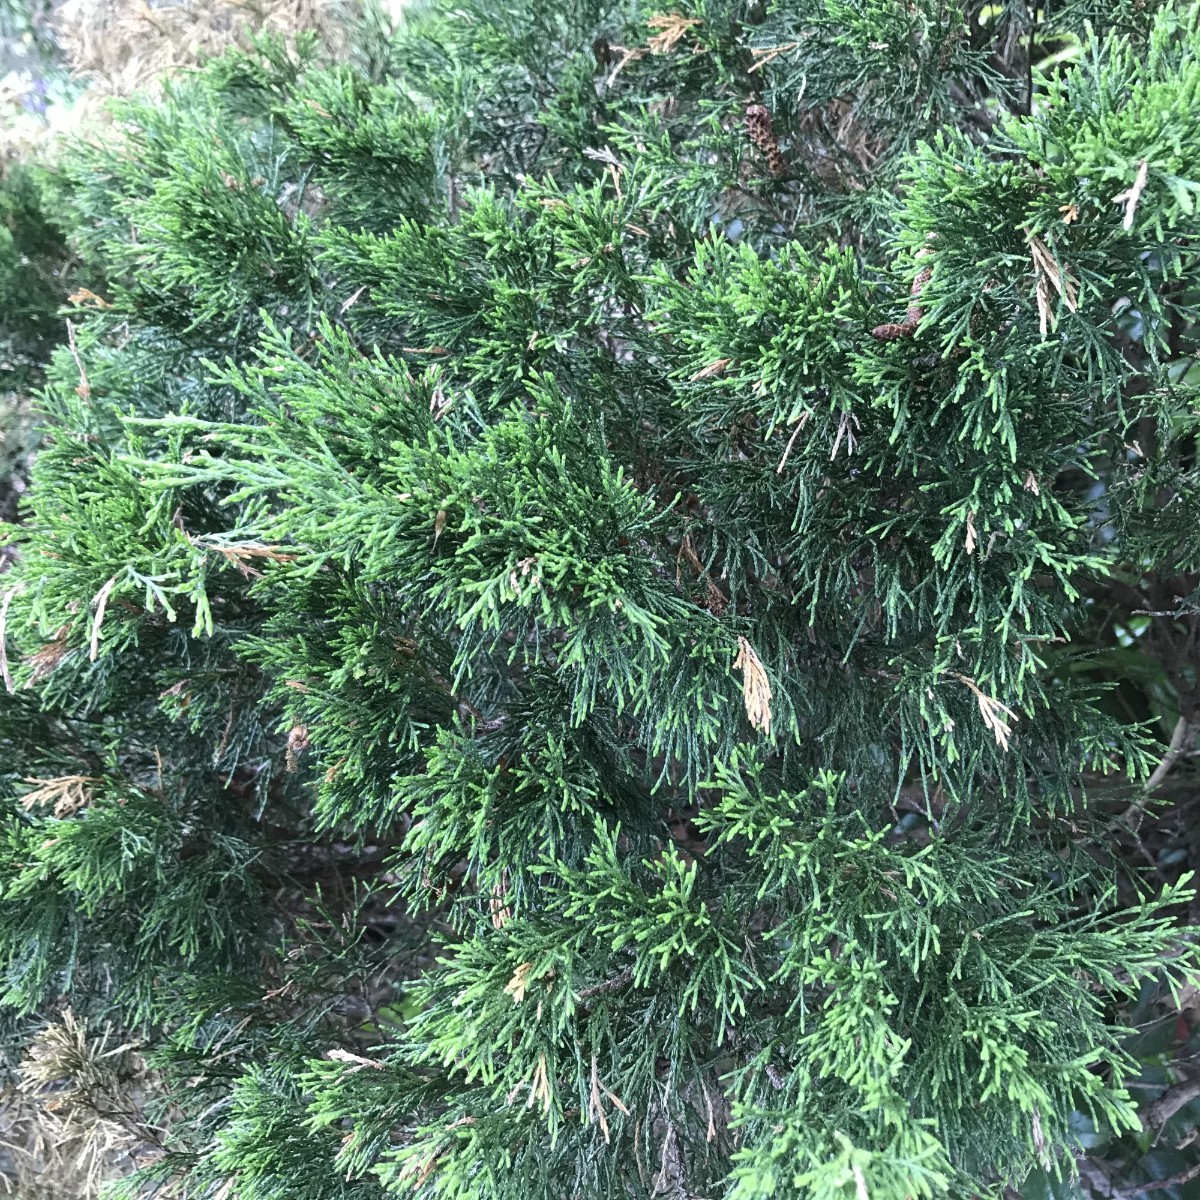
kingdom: Fungi
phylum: Basidiomycota
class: Pucciniomycetes
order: Pucciniales
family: Gymnosporangiaceae
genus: Gymnosporangium
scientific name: Gymnosporangium sabinae
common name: pæregitter-bævrerust
